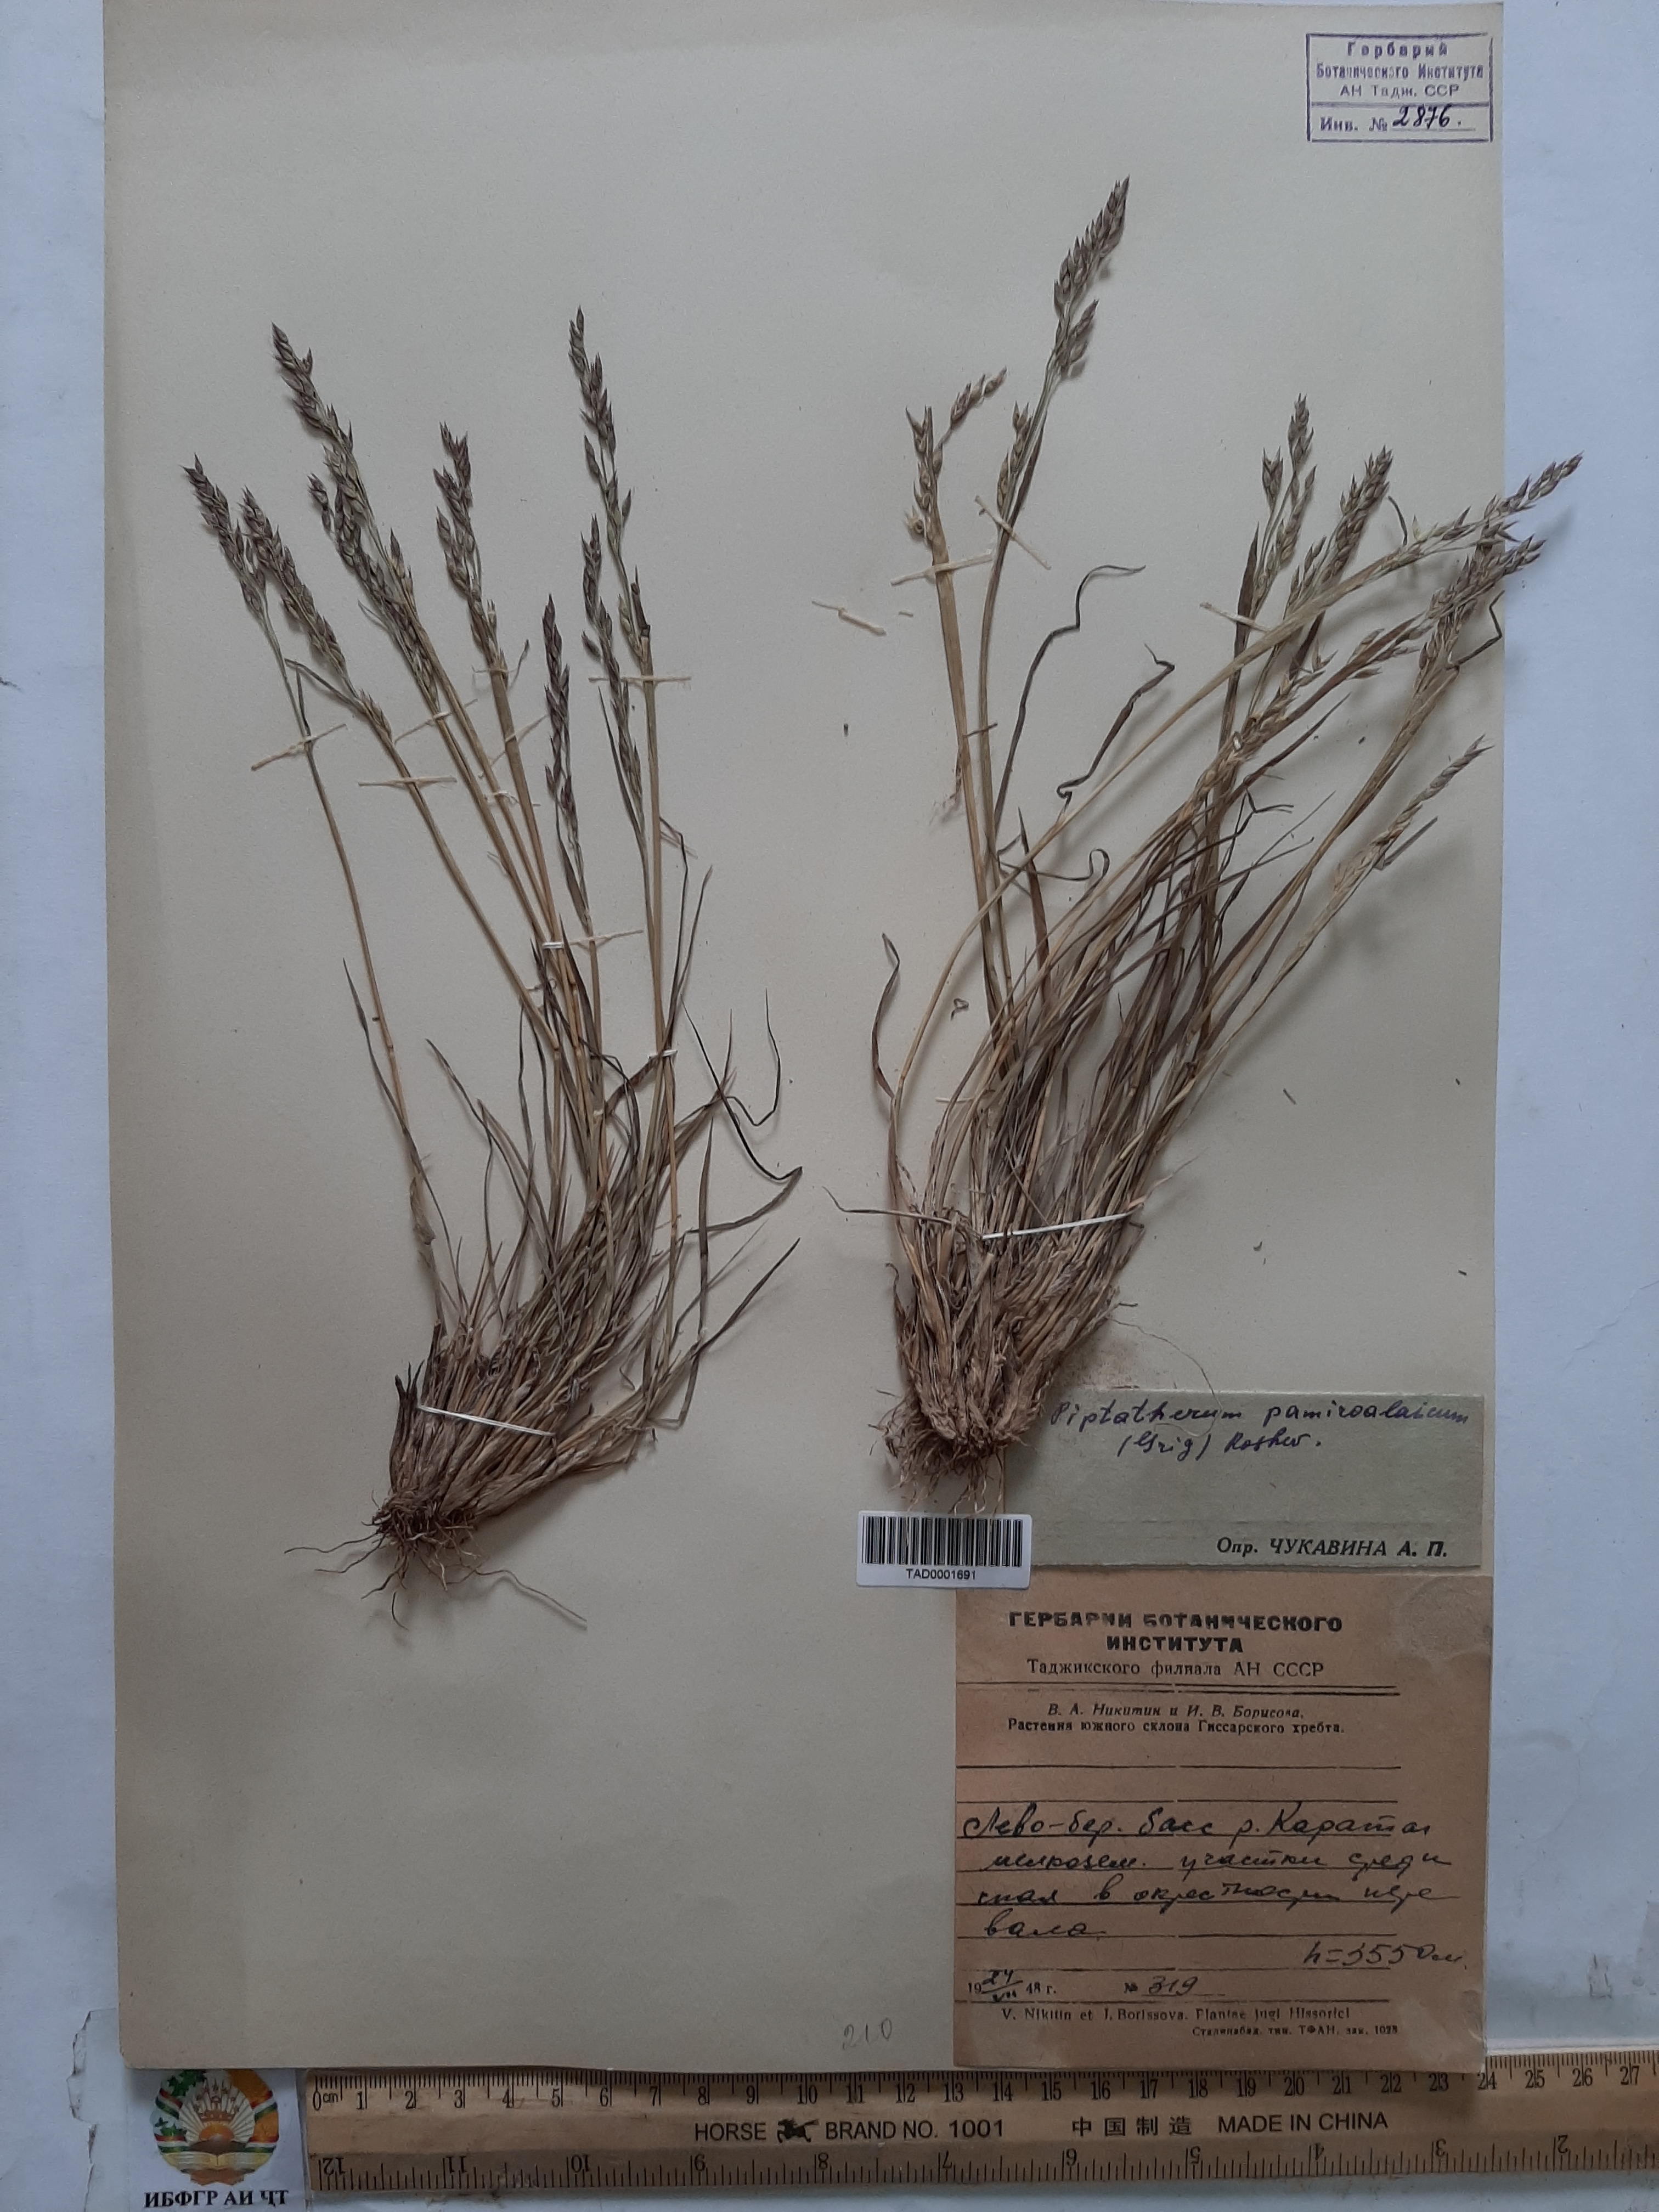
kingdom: Plantae
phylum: Tracheophyta
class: Liliopsida
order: Poales
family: Poaceae
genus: Piptatherum
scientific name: Piptatherum pamiralaicum
